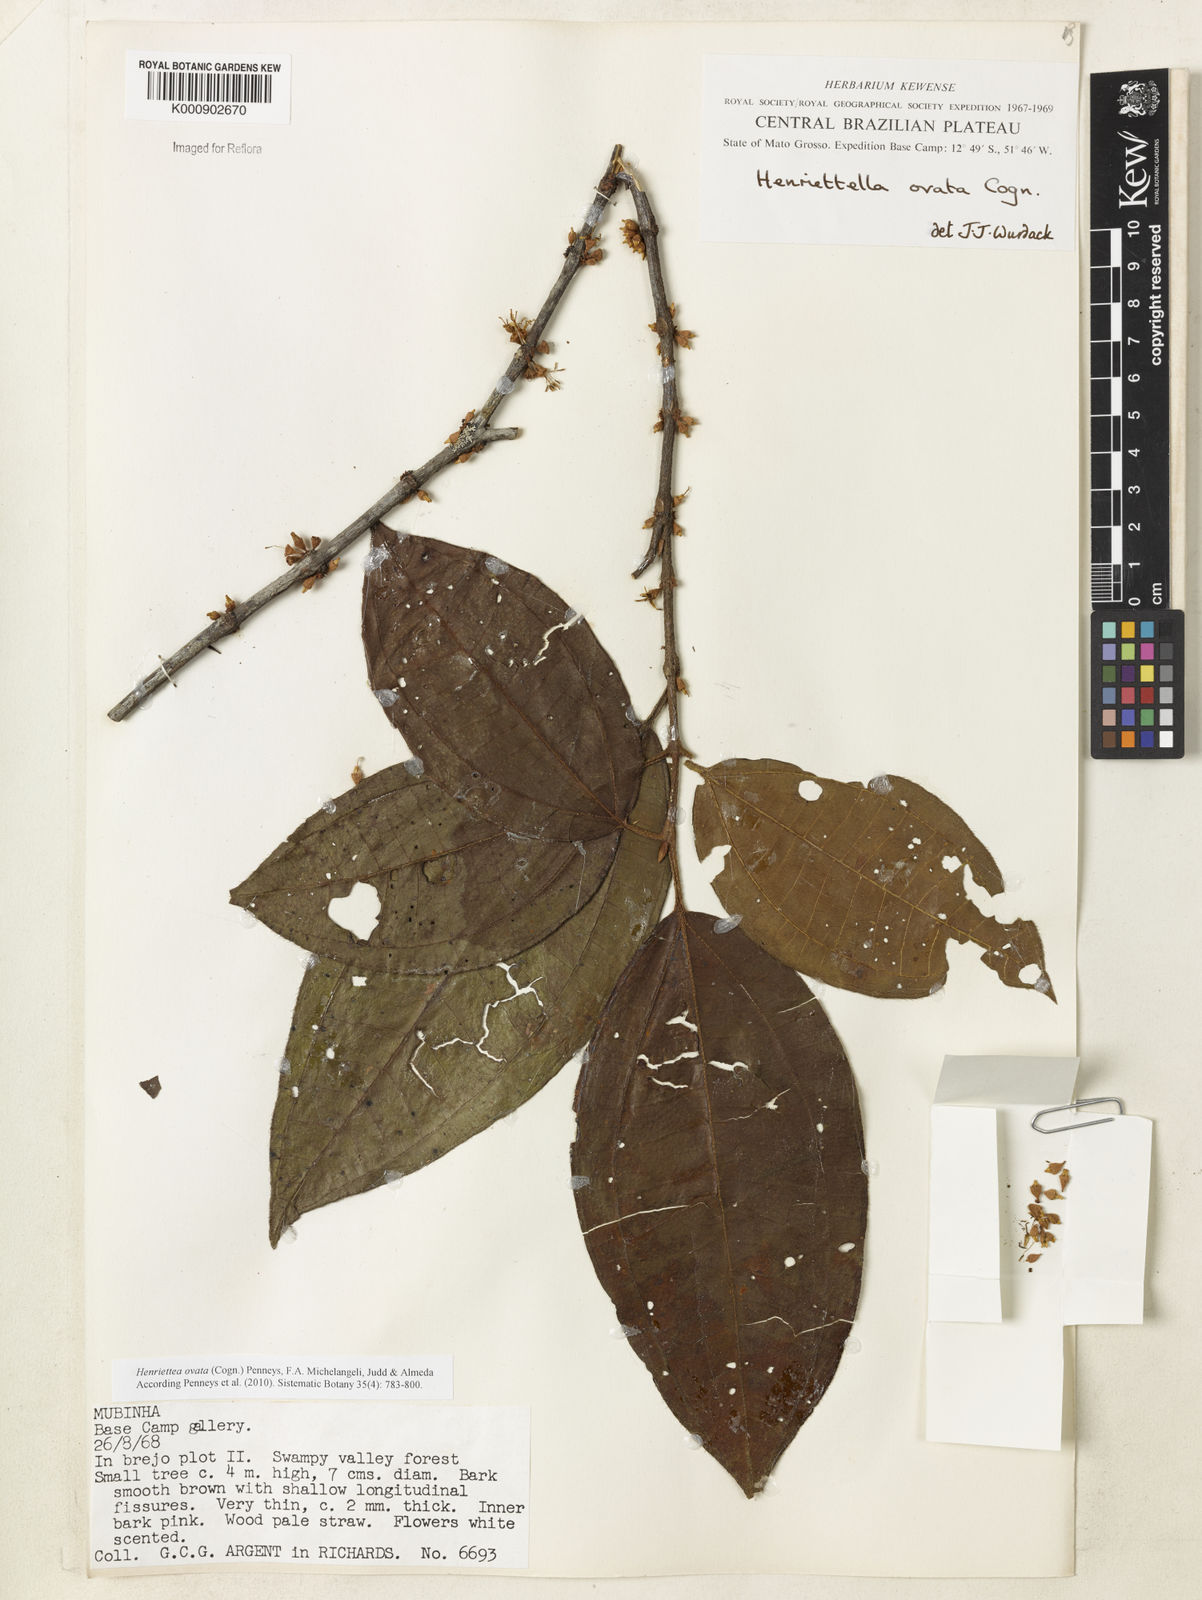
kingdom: Plantae
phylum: Tracheophyta
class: Magnoliopsida
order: Myrtales
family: Melastomataceae
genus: Henriettea
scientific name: Henriettea ovata
